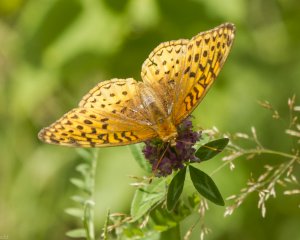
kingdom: Animalia
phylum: Arthropoda
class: Insecta
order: Lepidoptera
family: Nymphalidae
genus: Speyeria
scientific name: Speyeria cybele
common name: Great Spangled Fritillary
